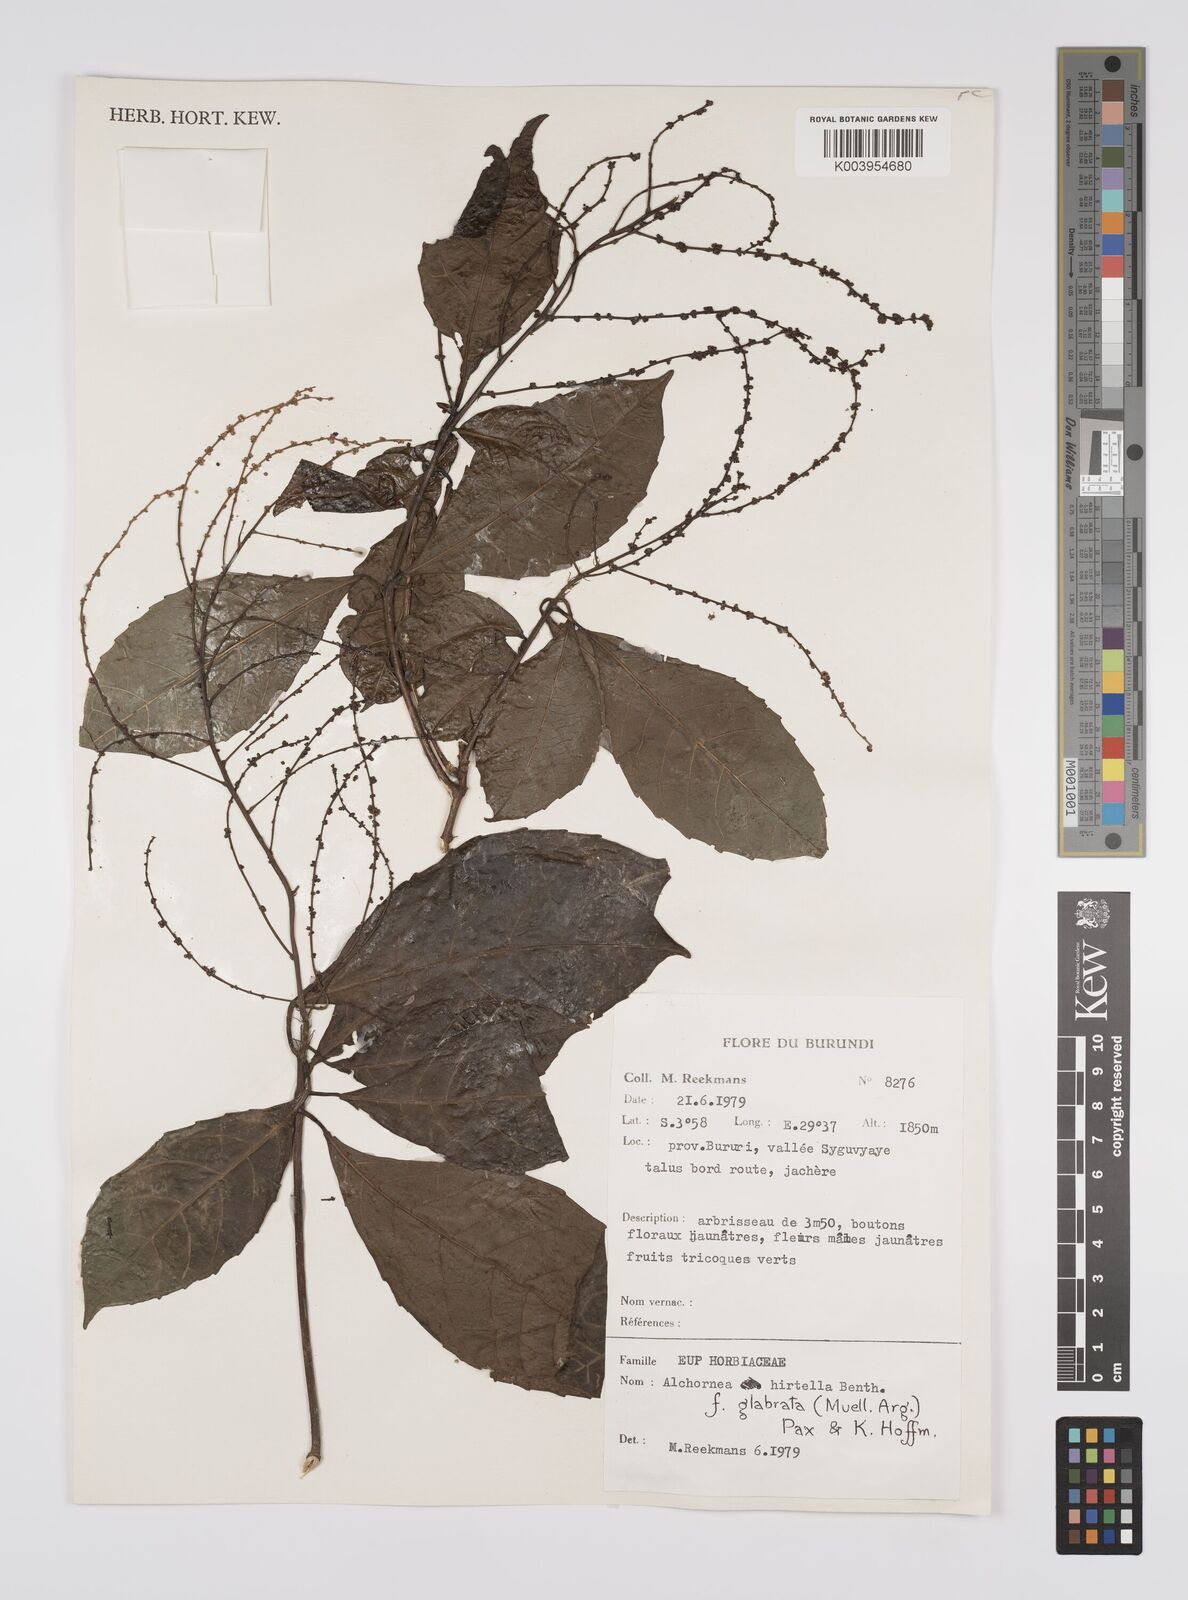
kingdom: Plantae
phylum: Tracheophyta
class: Magnoliopsida
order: Malpighiales
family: Euphorbiaceae
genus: Alchornea
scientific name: Alchornea hirtella
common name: Forest bead-string
